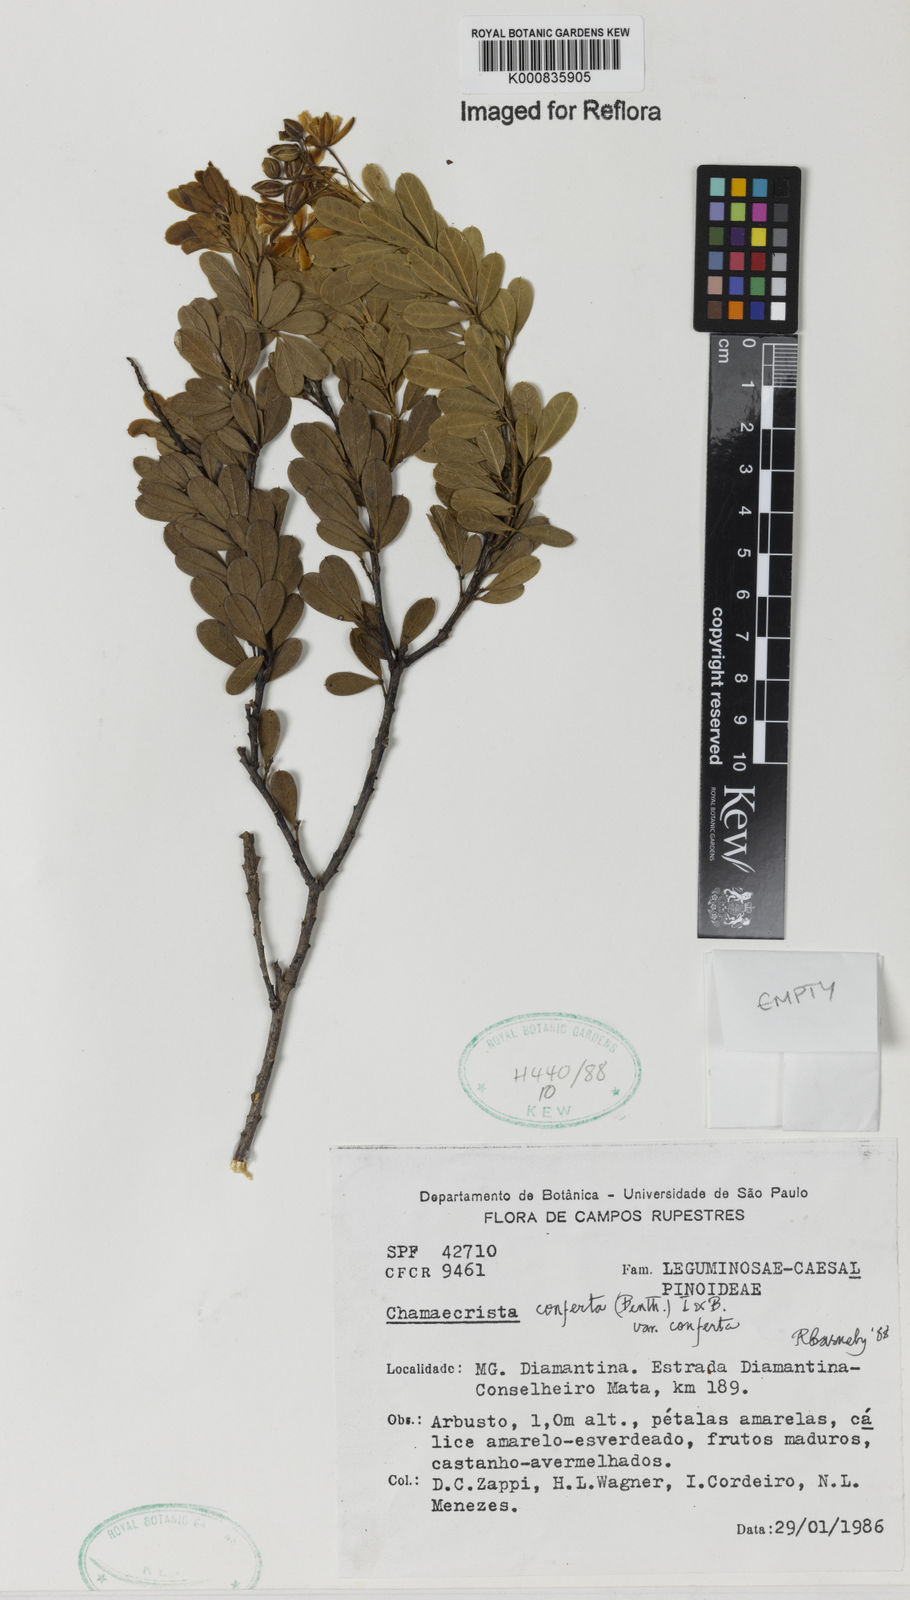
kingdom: Plantae
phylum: Tracheophyta
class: Magnoliopsida
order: Fabales
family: Fabaceae
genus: Chamaecrista
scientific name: Chamaecrista conferta
